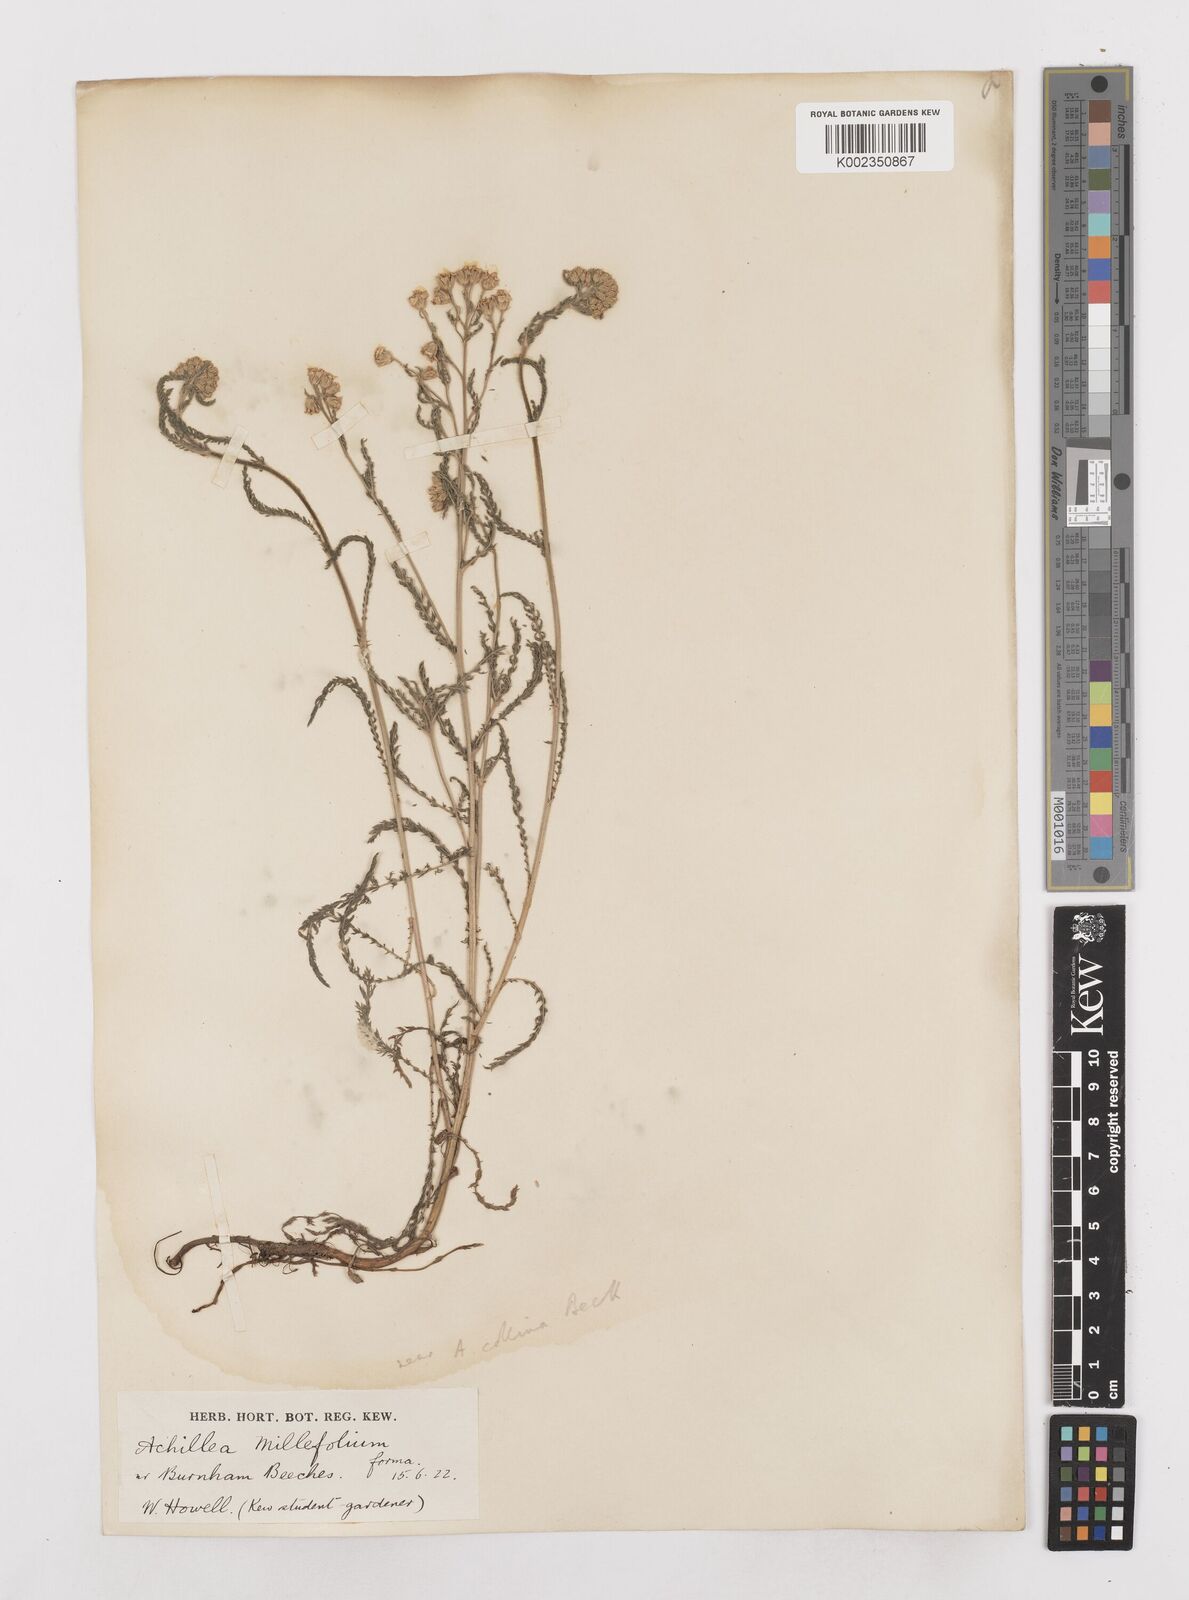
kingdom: Plantae
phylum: Tracheophyta
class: Magnoliopsida
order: Asterales
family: Asteraceae
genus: Achillea
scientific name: Achillea millefolium
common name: Yarrow
